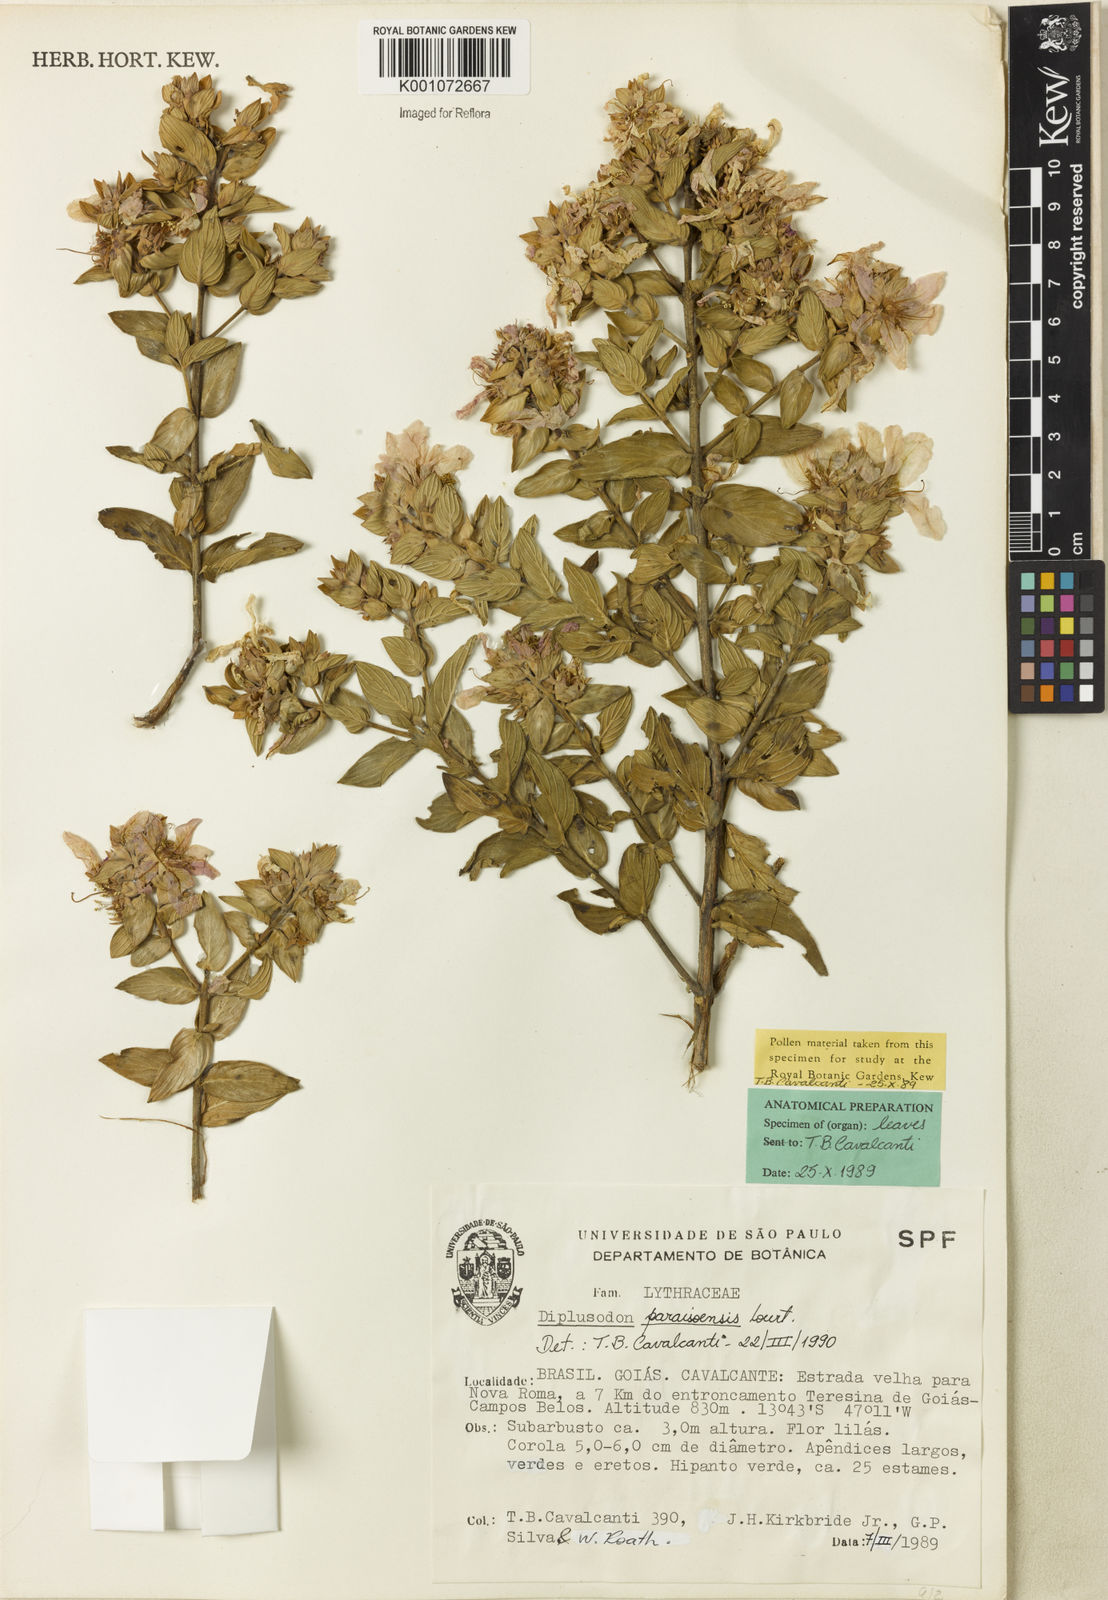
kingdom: Plantae
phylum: Tracheophyta
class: Magnoliopsida
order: Myrtales
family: Lythraceae
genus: Diplusodon
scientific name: Diplusodon paraisoensis
